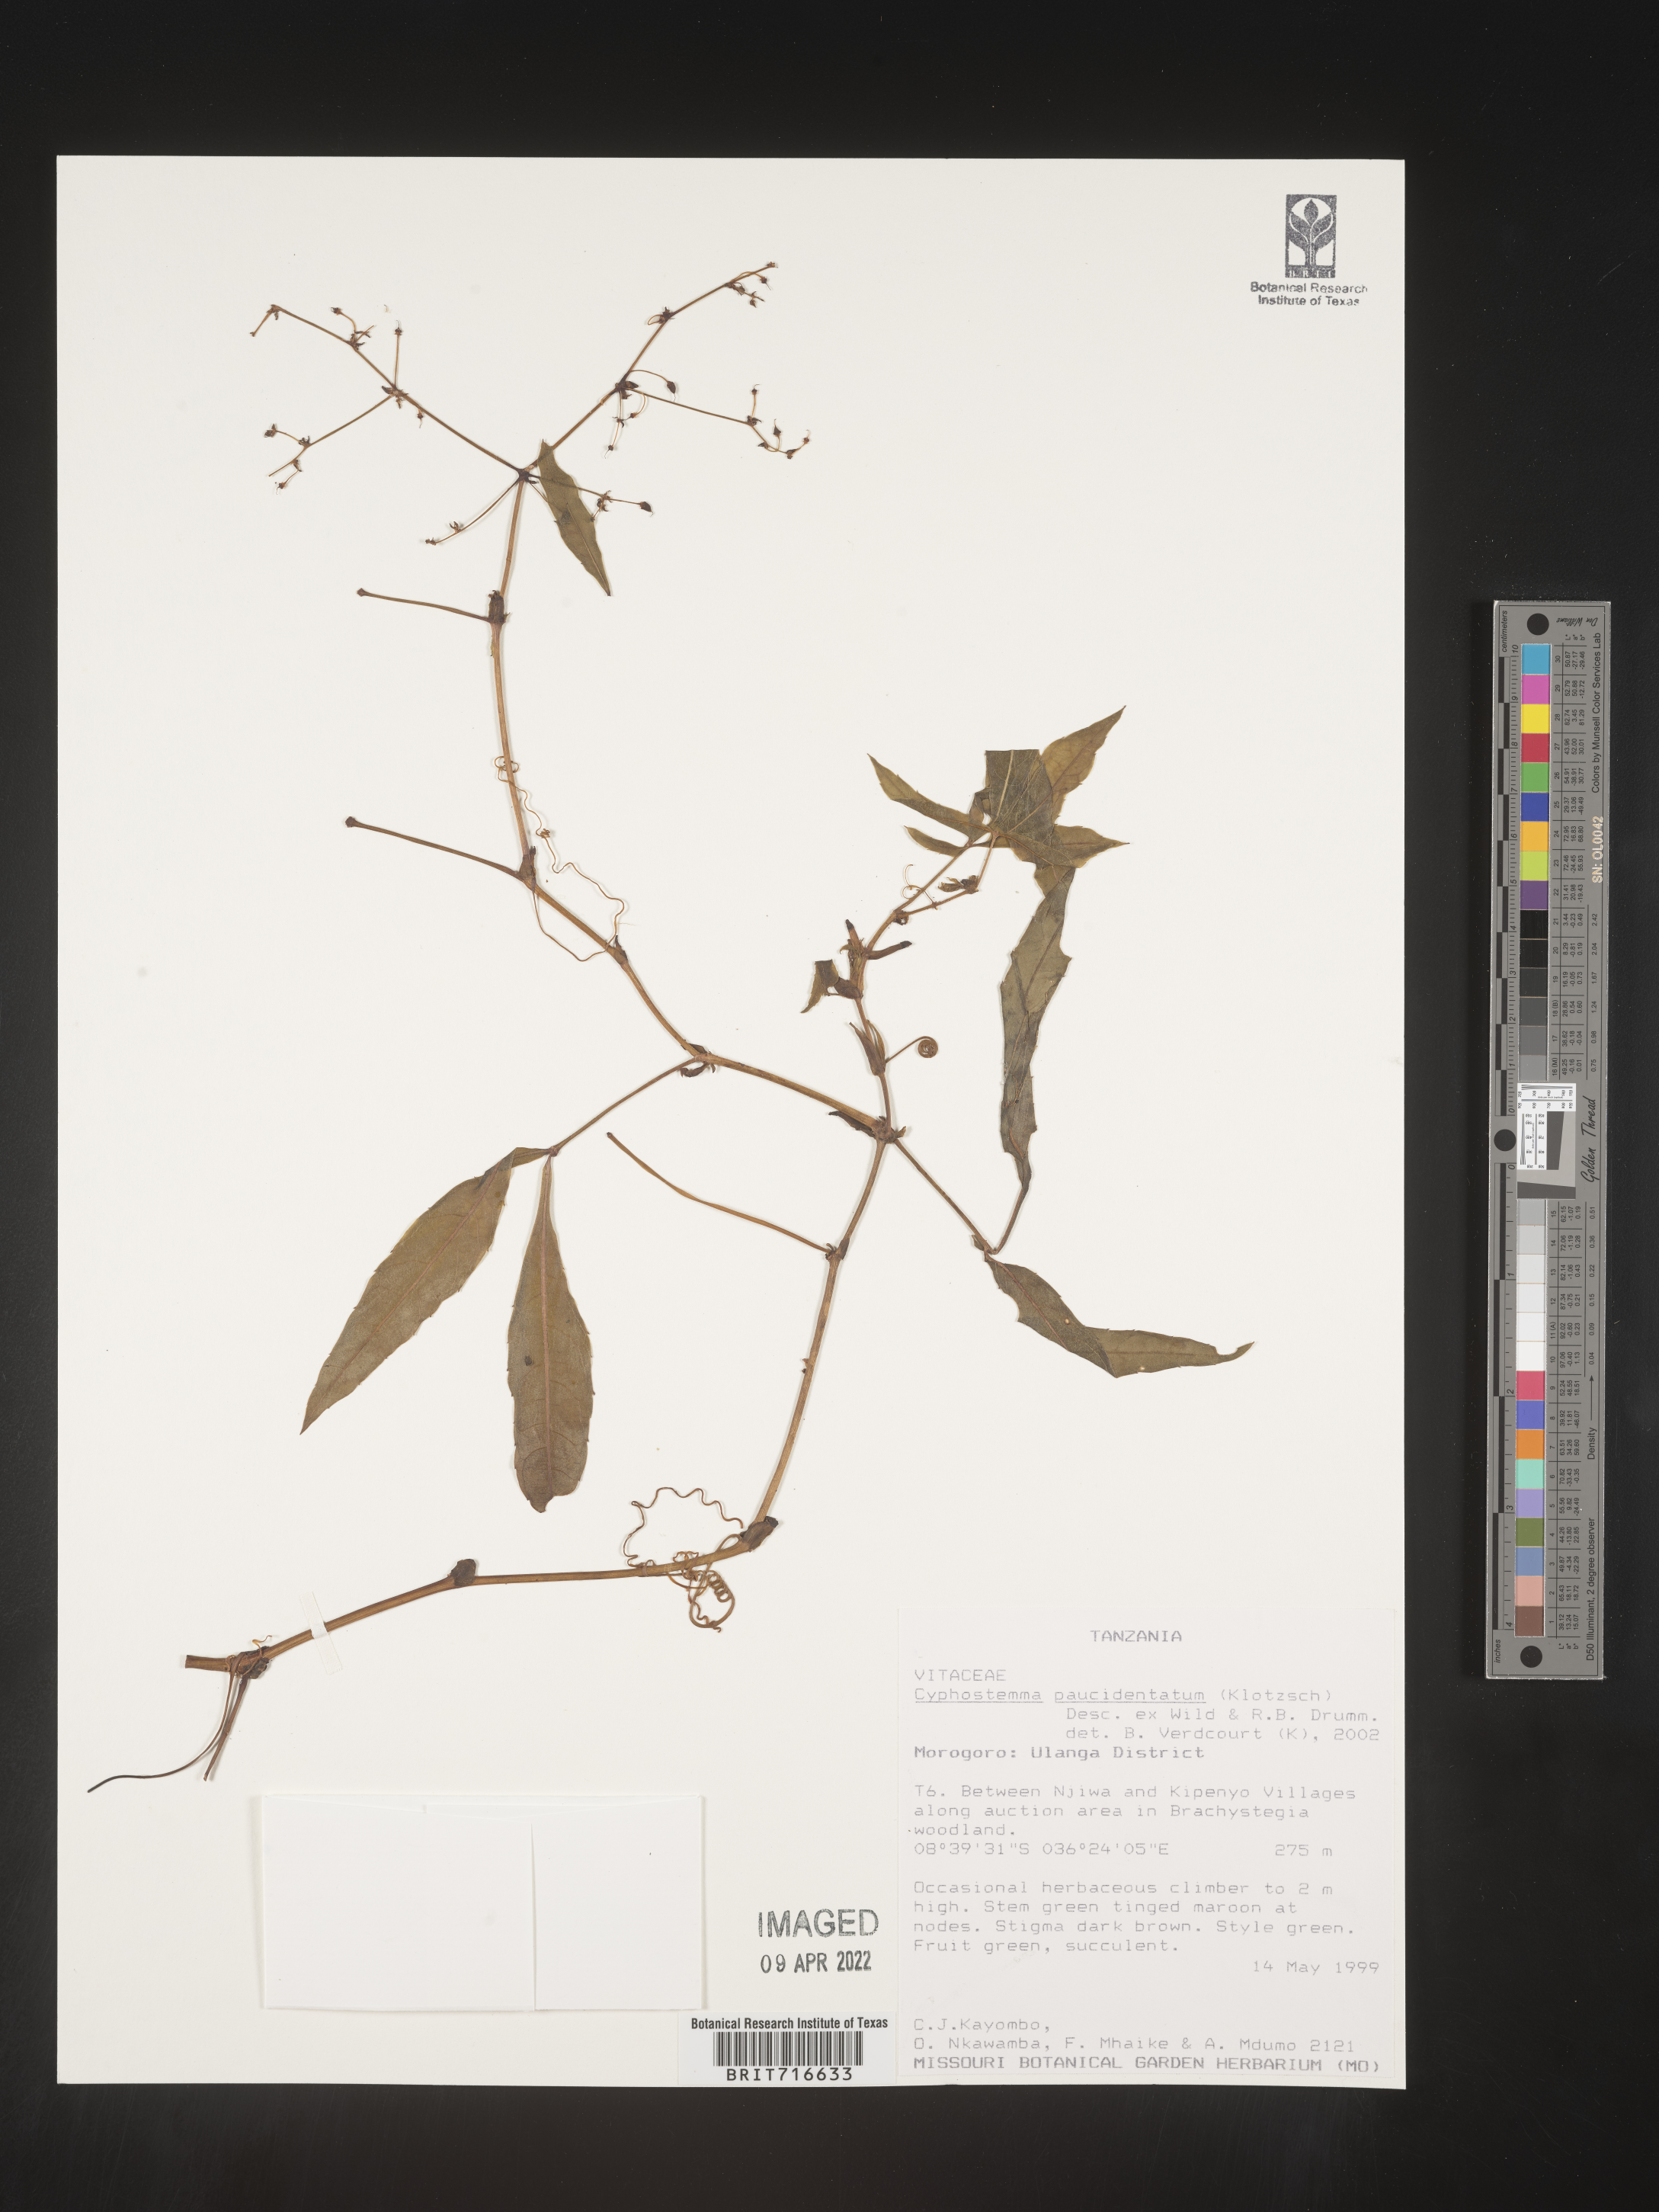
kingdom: Plantae
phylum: Tracheophyta
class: Magnoliopsida
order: Vitales
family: Vitaceae
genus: Cyphostemma
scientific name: Cyphostemma
